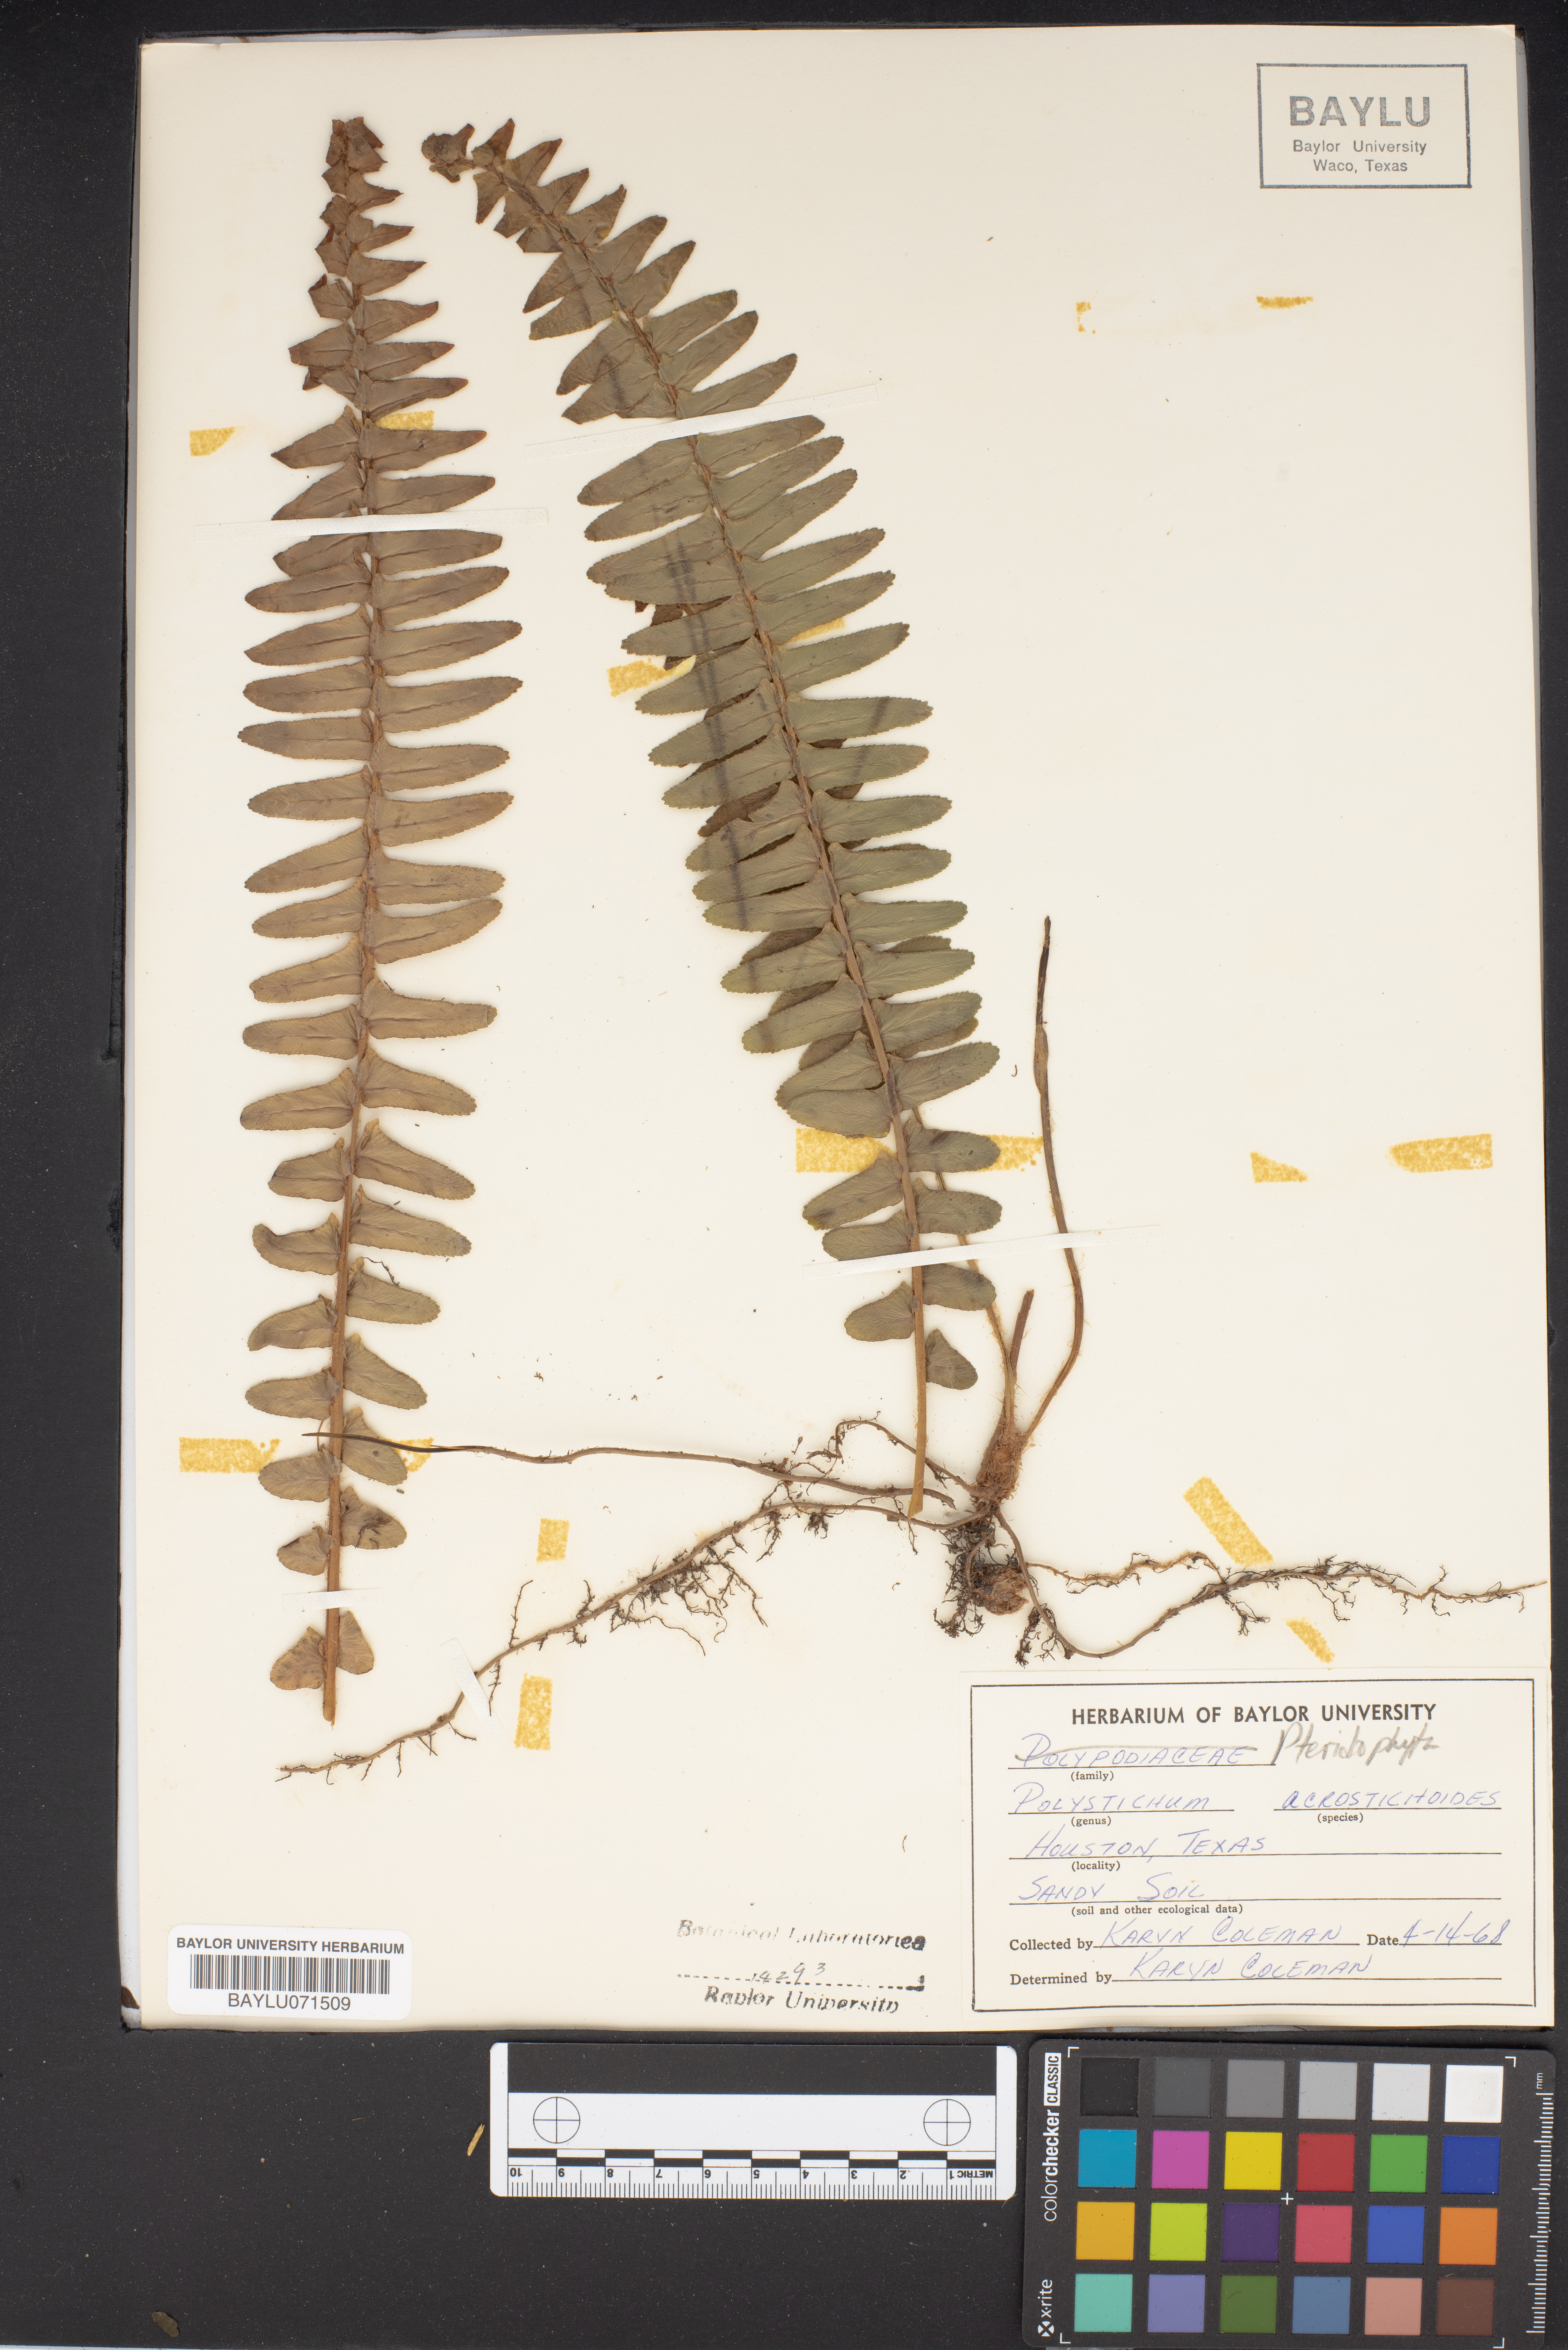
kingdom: Plantae
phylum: Tracheophyta
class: Polypodiopsida
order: Polypodiales
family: Dryopteridaceae
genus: Polystichum
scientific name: Polystichum acrostichoides
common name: Christmas fern
